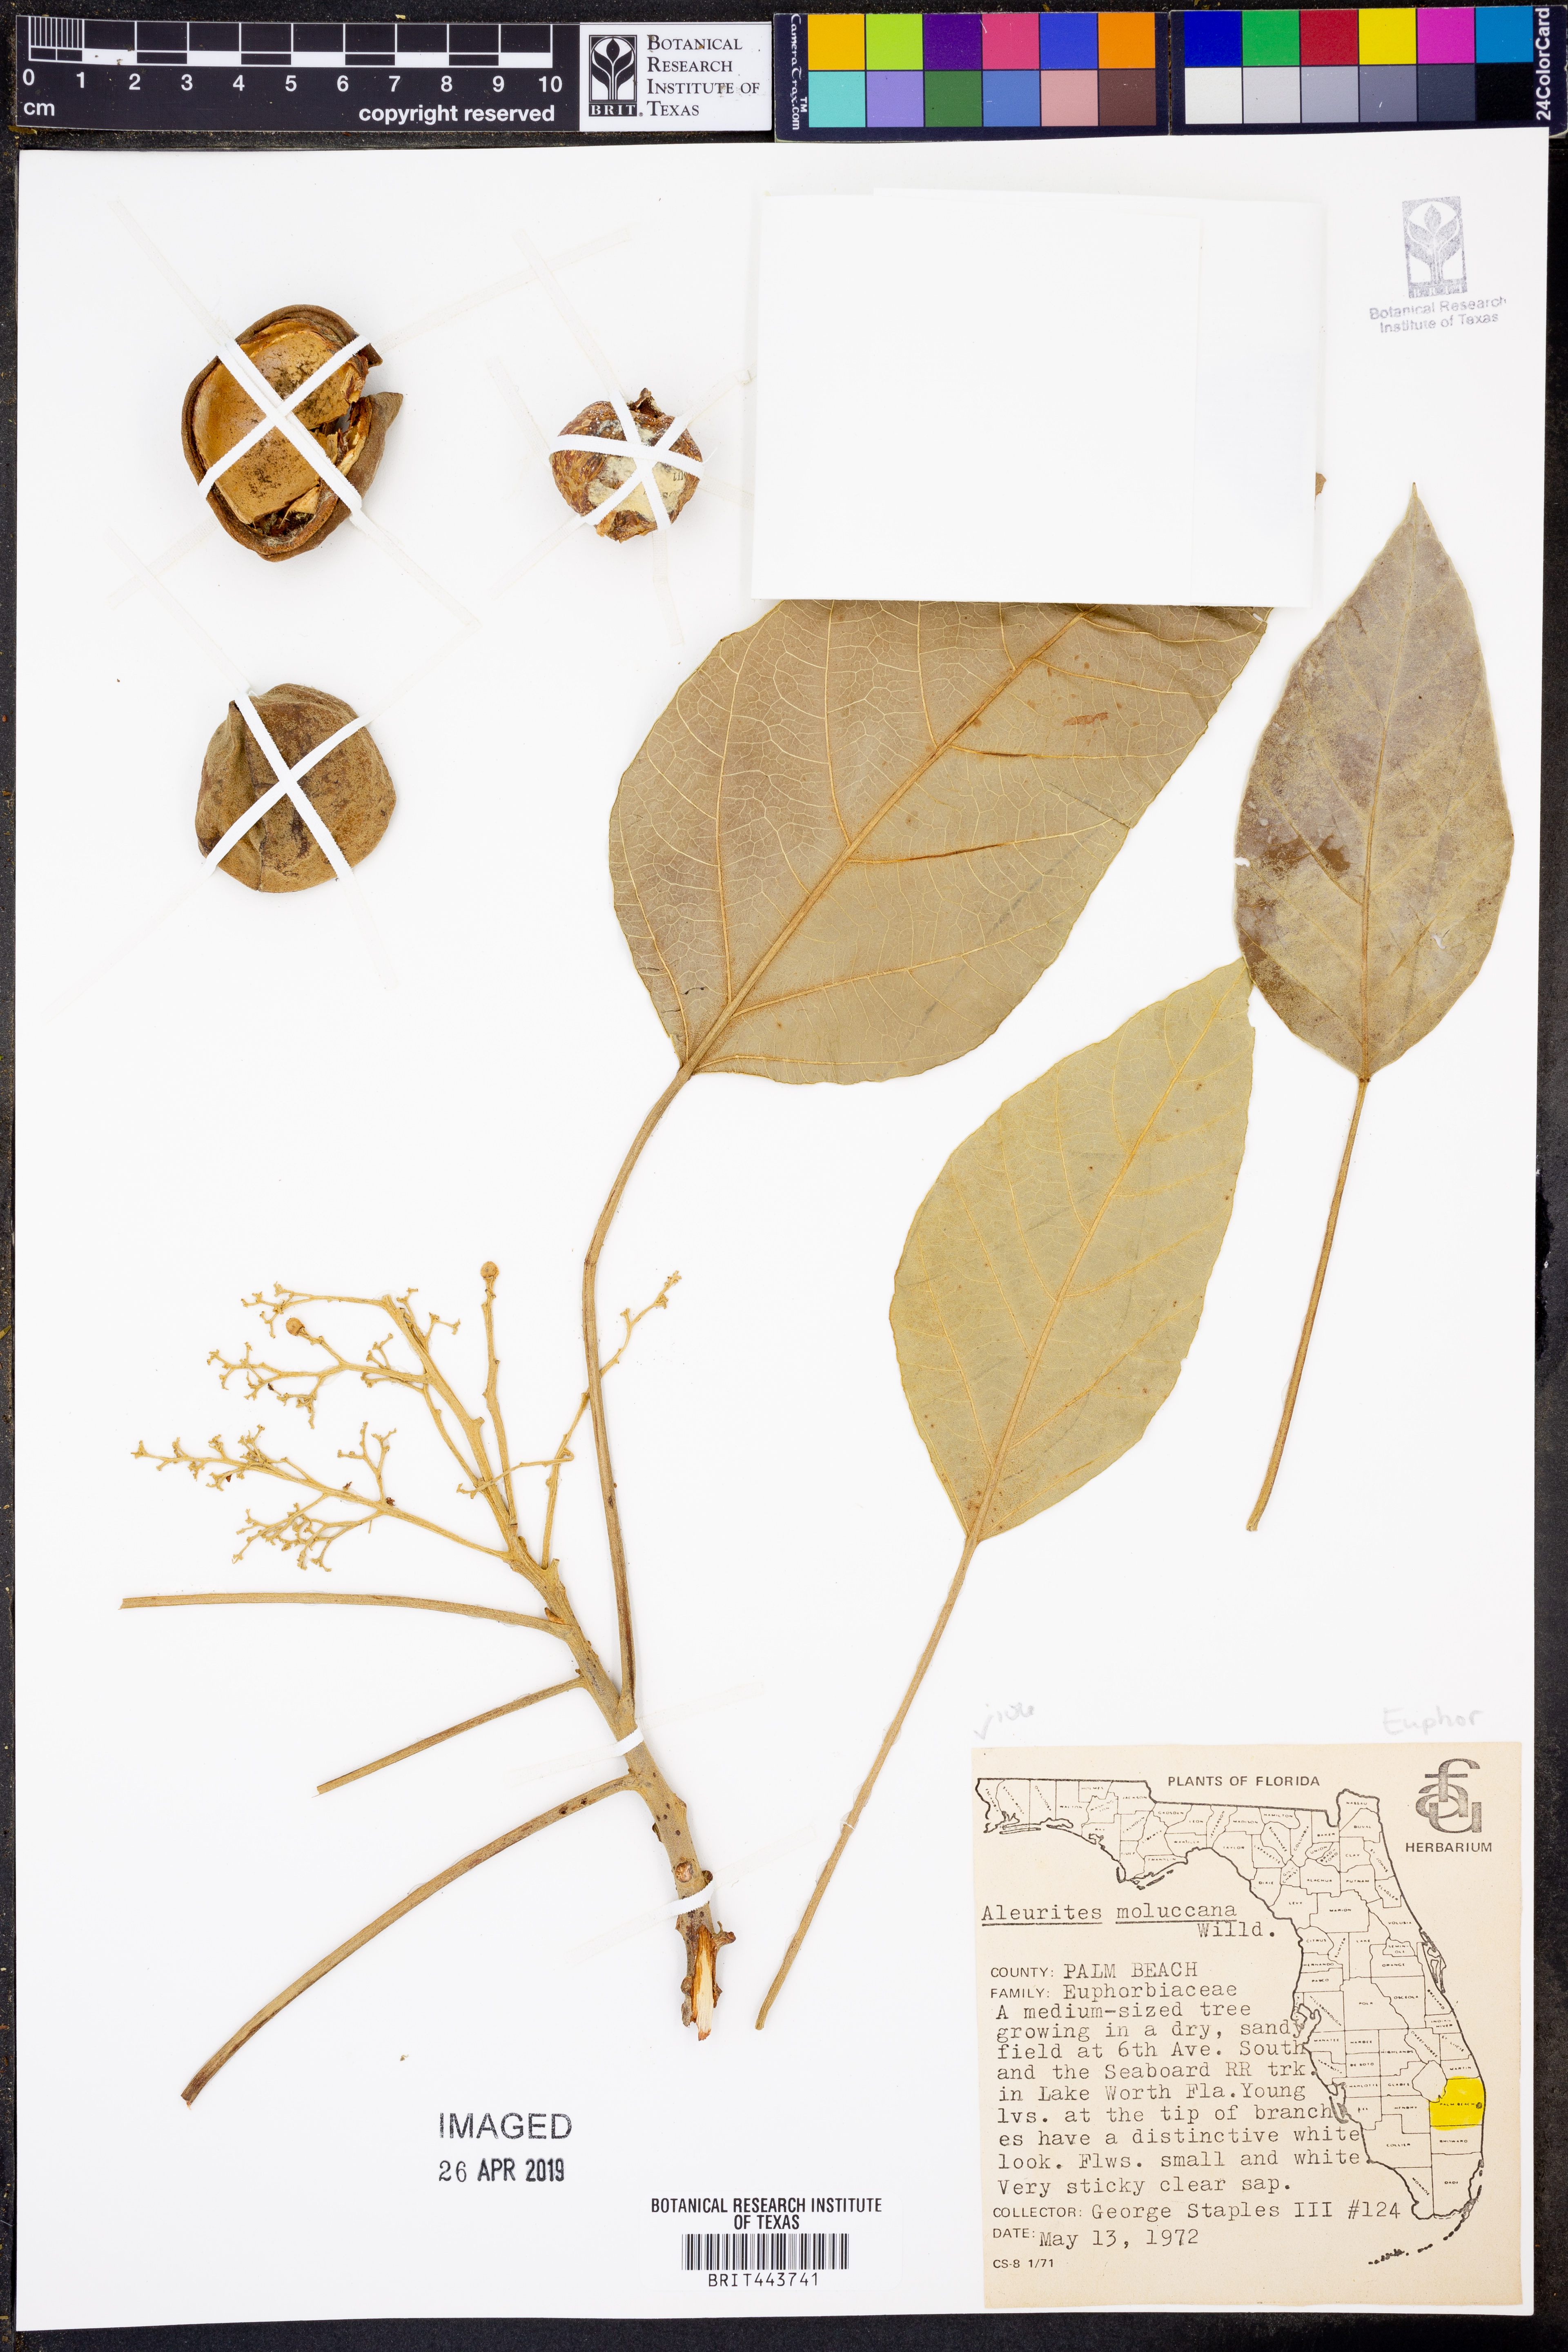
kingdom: Plantae
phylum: Tracheophyta
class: Magnoliopsida
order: Malpighiales
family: Euphorbiaceae
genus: Aleurites
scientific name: Aleurites moluccanus
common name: Candlenut tree
